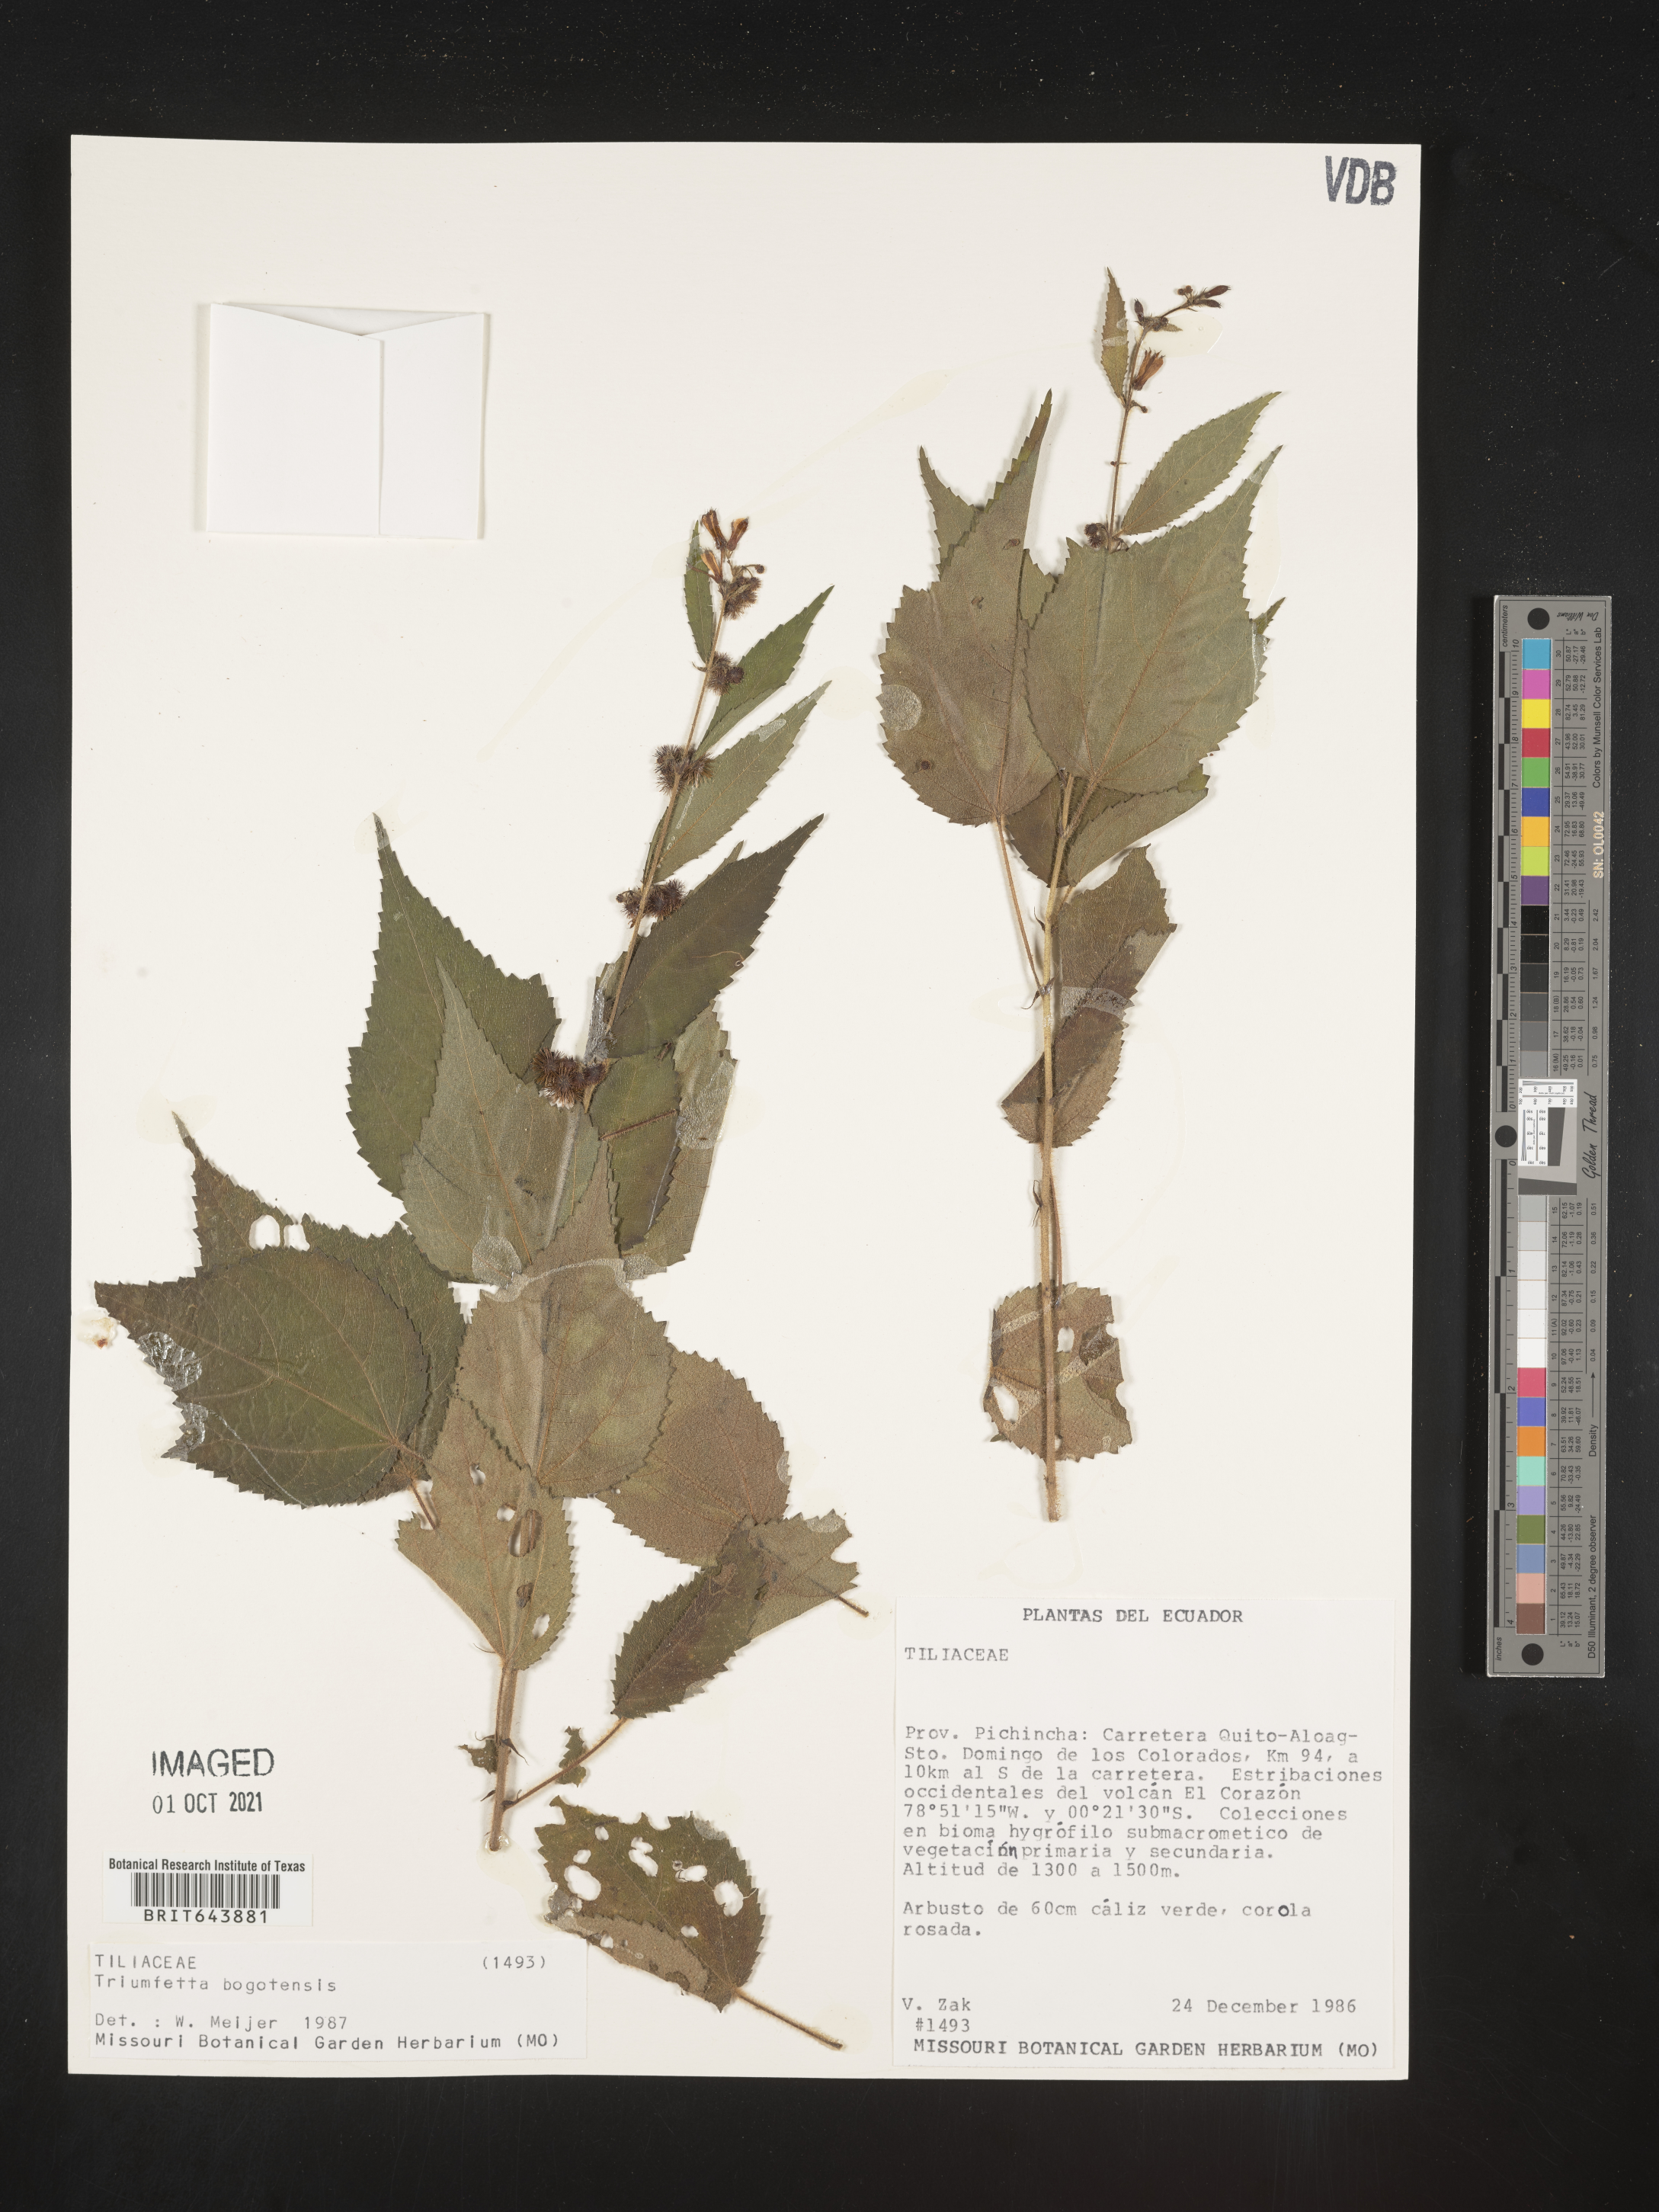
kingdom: Plantae
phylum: Tracheophyta
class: Magnoliopsida
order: Malvales
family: Malvaceae
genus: Triumfetta
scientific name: Triumfetta
